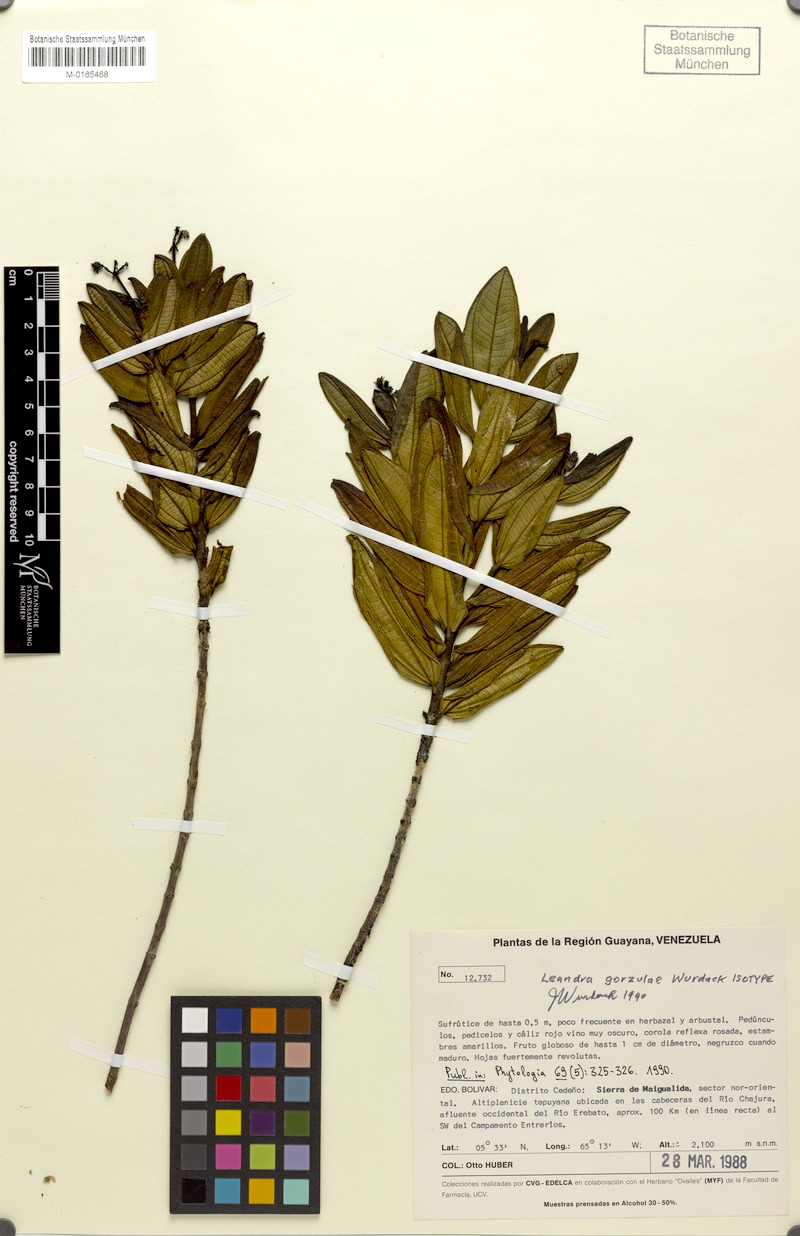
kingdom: Plantae
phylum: Tracheophyta
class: Magnoliopsida
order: Myrtales
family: Melastomataceae
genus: Miconia
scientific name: Miconia gorzulae
